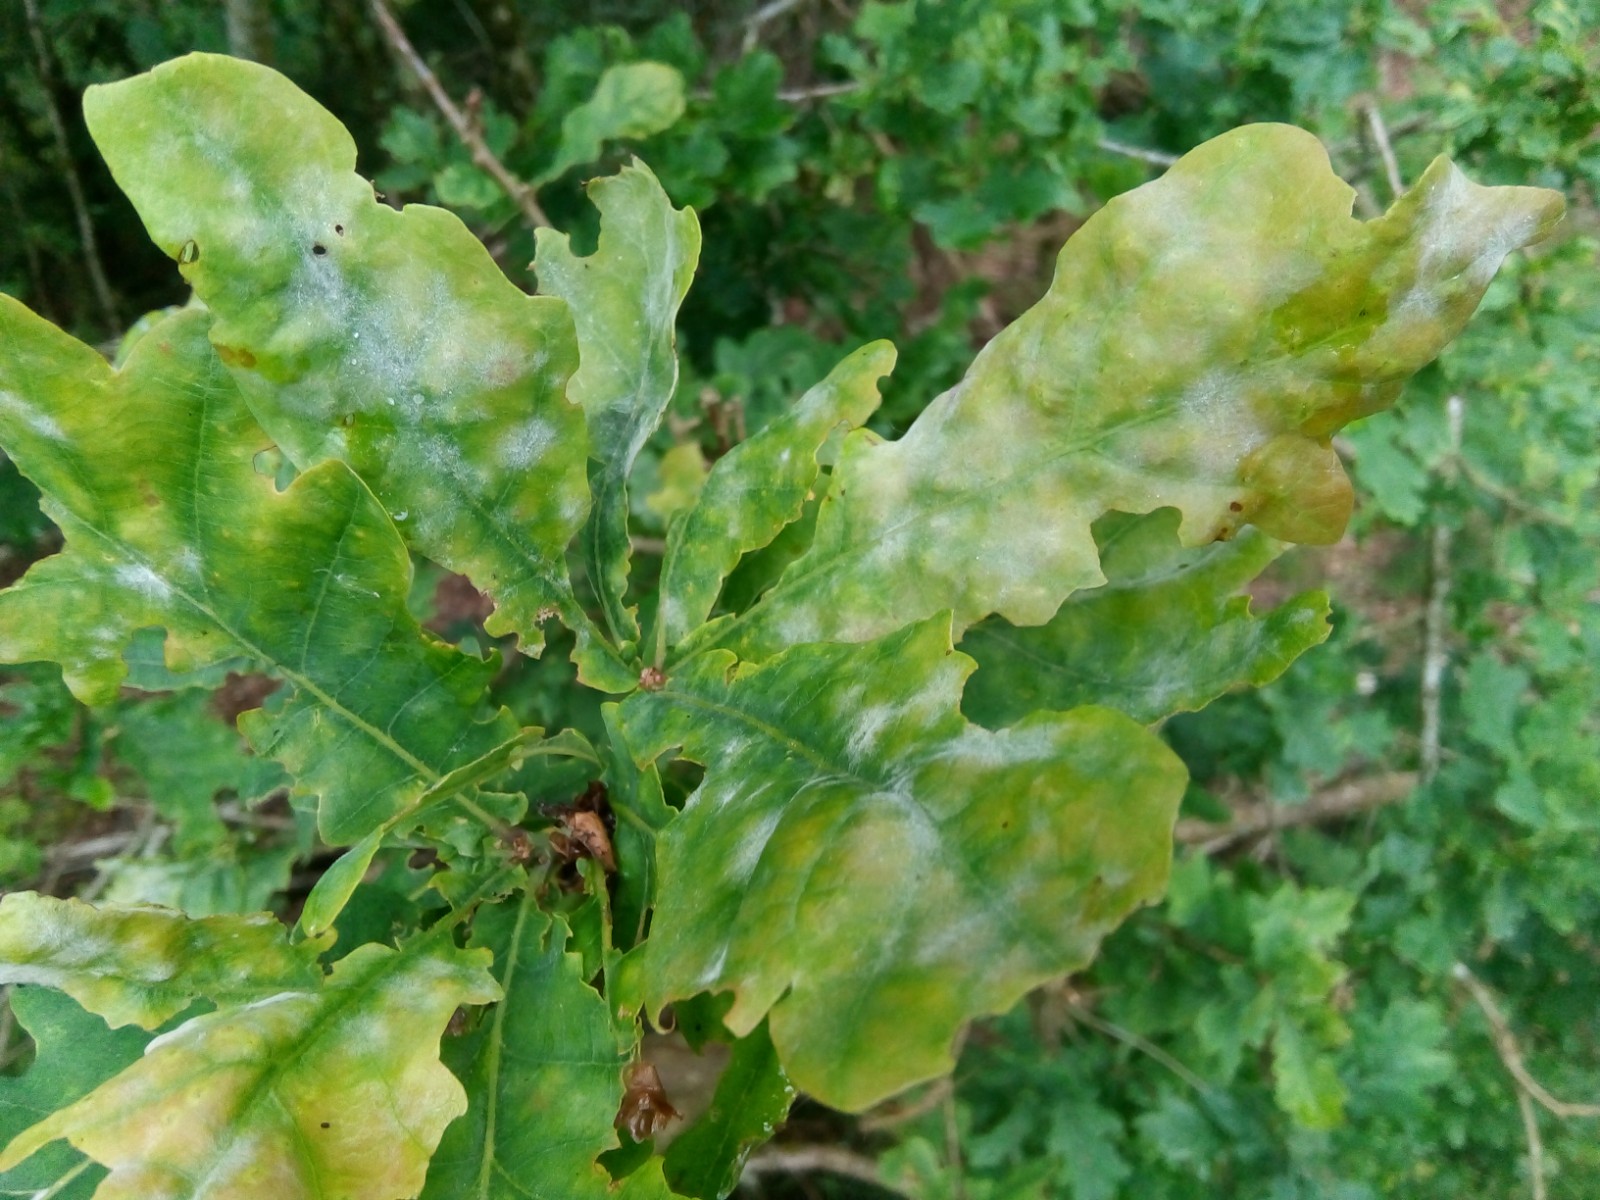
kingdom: Fungi
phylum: Ascomycota
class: Leotiomycetes
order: Helotiales
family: Erysiphaceae
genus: Erysiphe
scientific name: Erysiphe alphitoides
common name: ege-meldug
